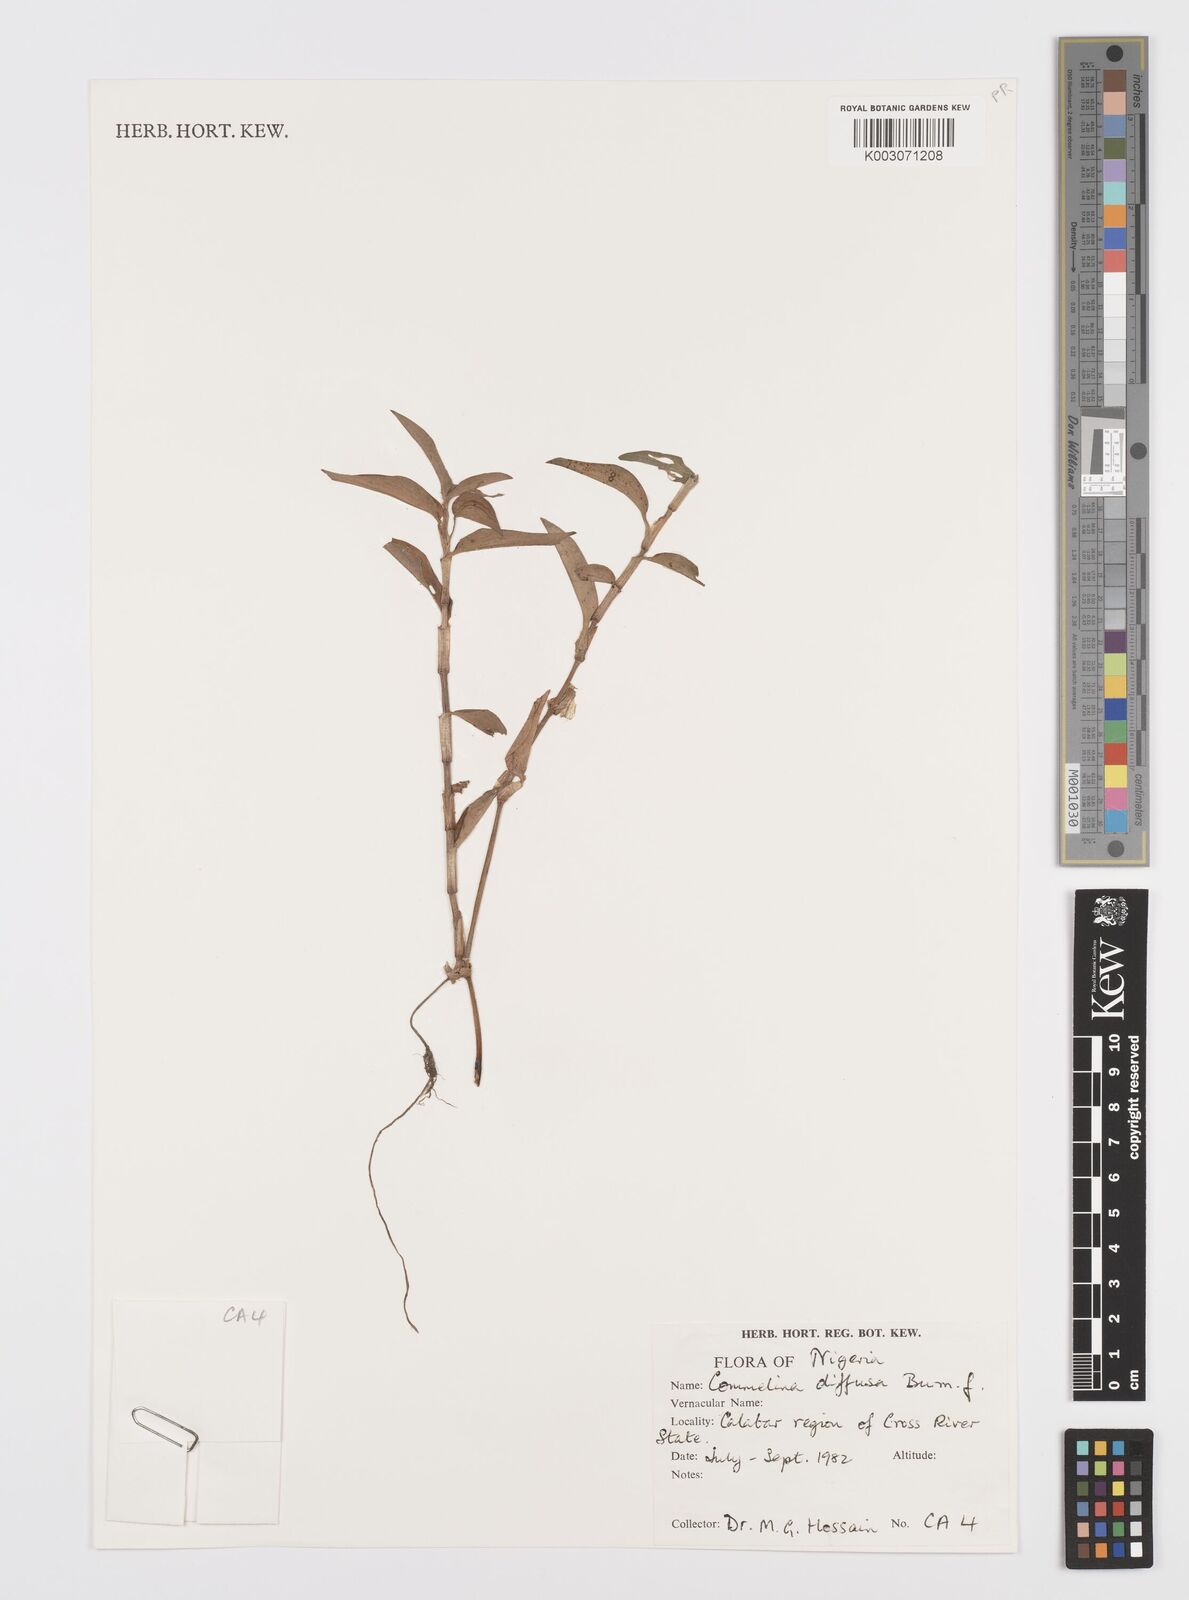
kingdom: Plantae
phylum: Tracheophyta
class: Liliopsida
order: Commelinales
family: Commelinaceae
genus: Commelina
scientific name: Commelina diffusa
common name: Climbing dayflower
